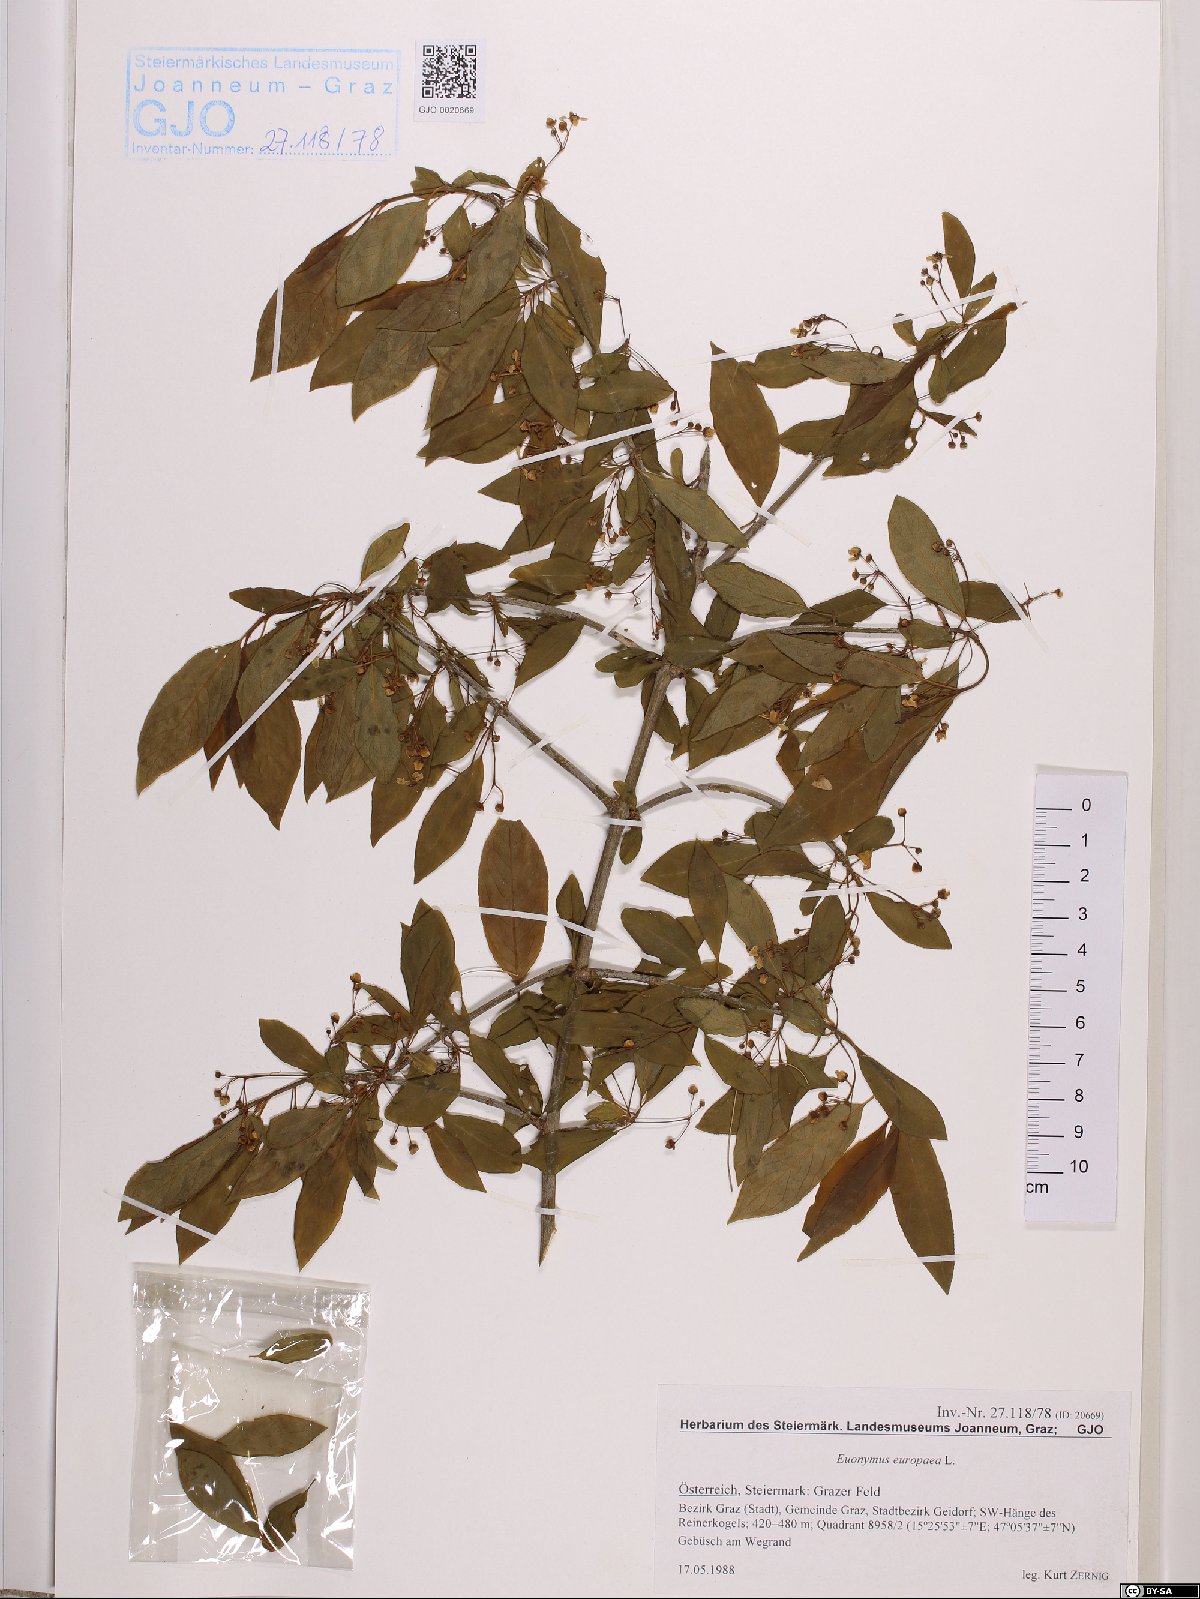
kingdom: Plantae
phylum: Tracheophyta
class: Magnoliopsida
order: Celastrales
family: Celastraceae
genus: Euonymus
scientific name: Euonymus europaeus
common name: Spindle
